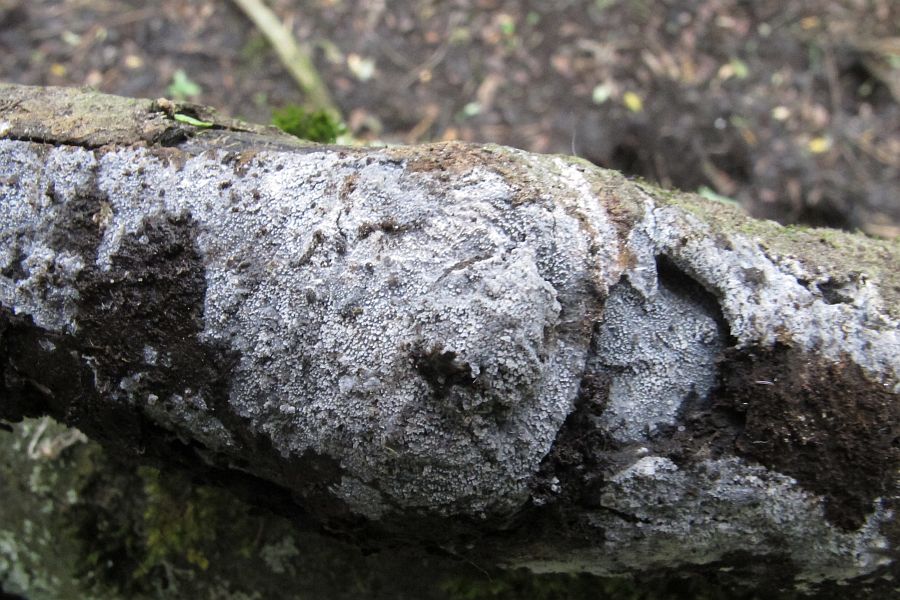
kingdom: Fungi
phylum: Basidiomycota
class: Agaricomycetes
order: Polyporales
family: Meruliaceae
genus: Scopuloides
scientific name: Scopuloides rimosa
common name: dughinde
